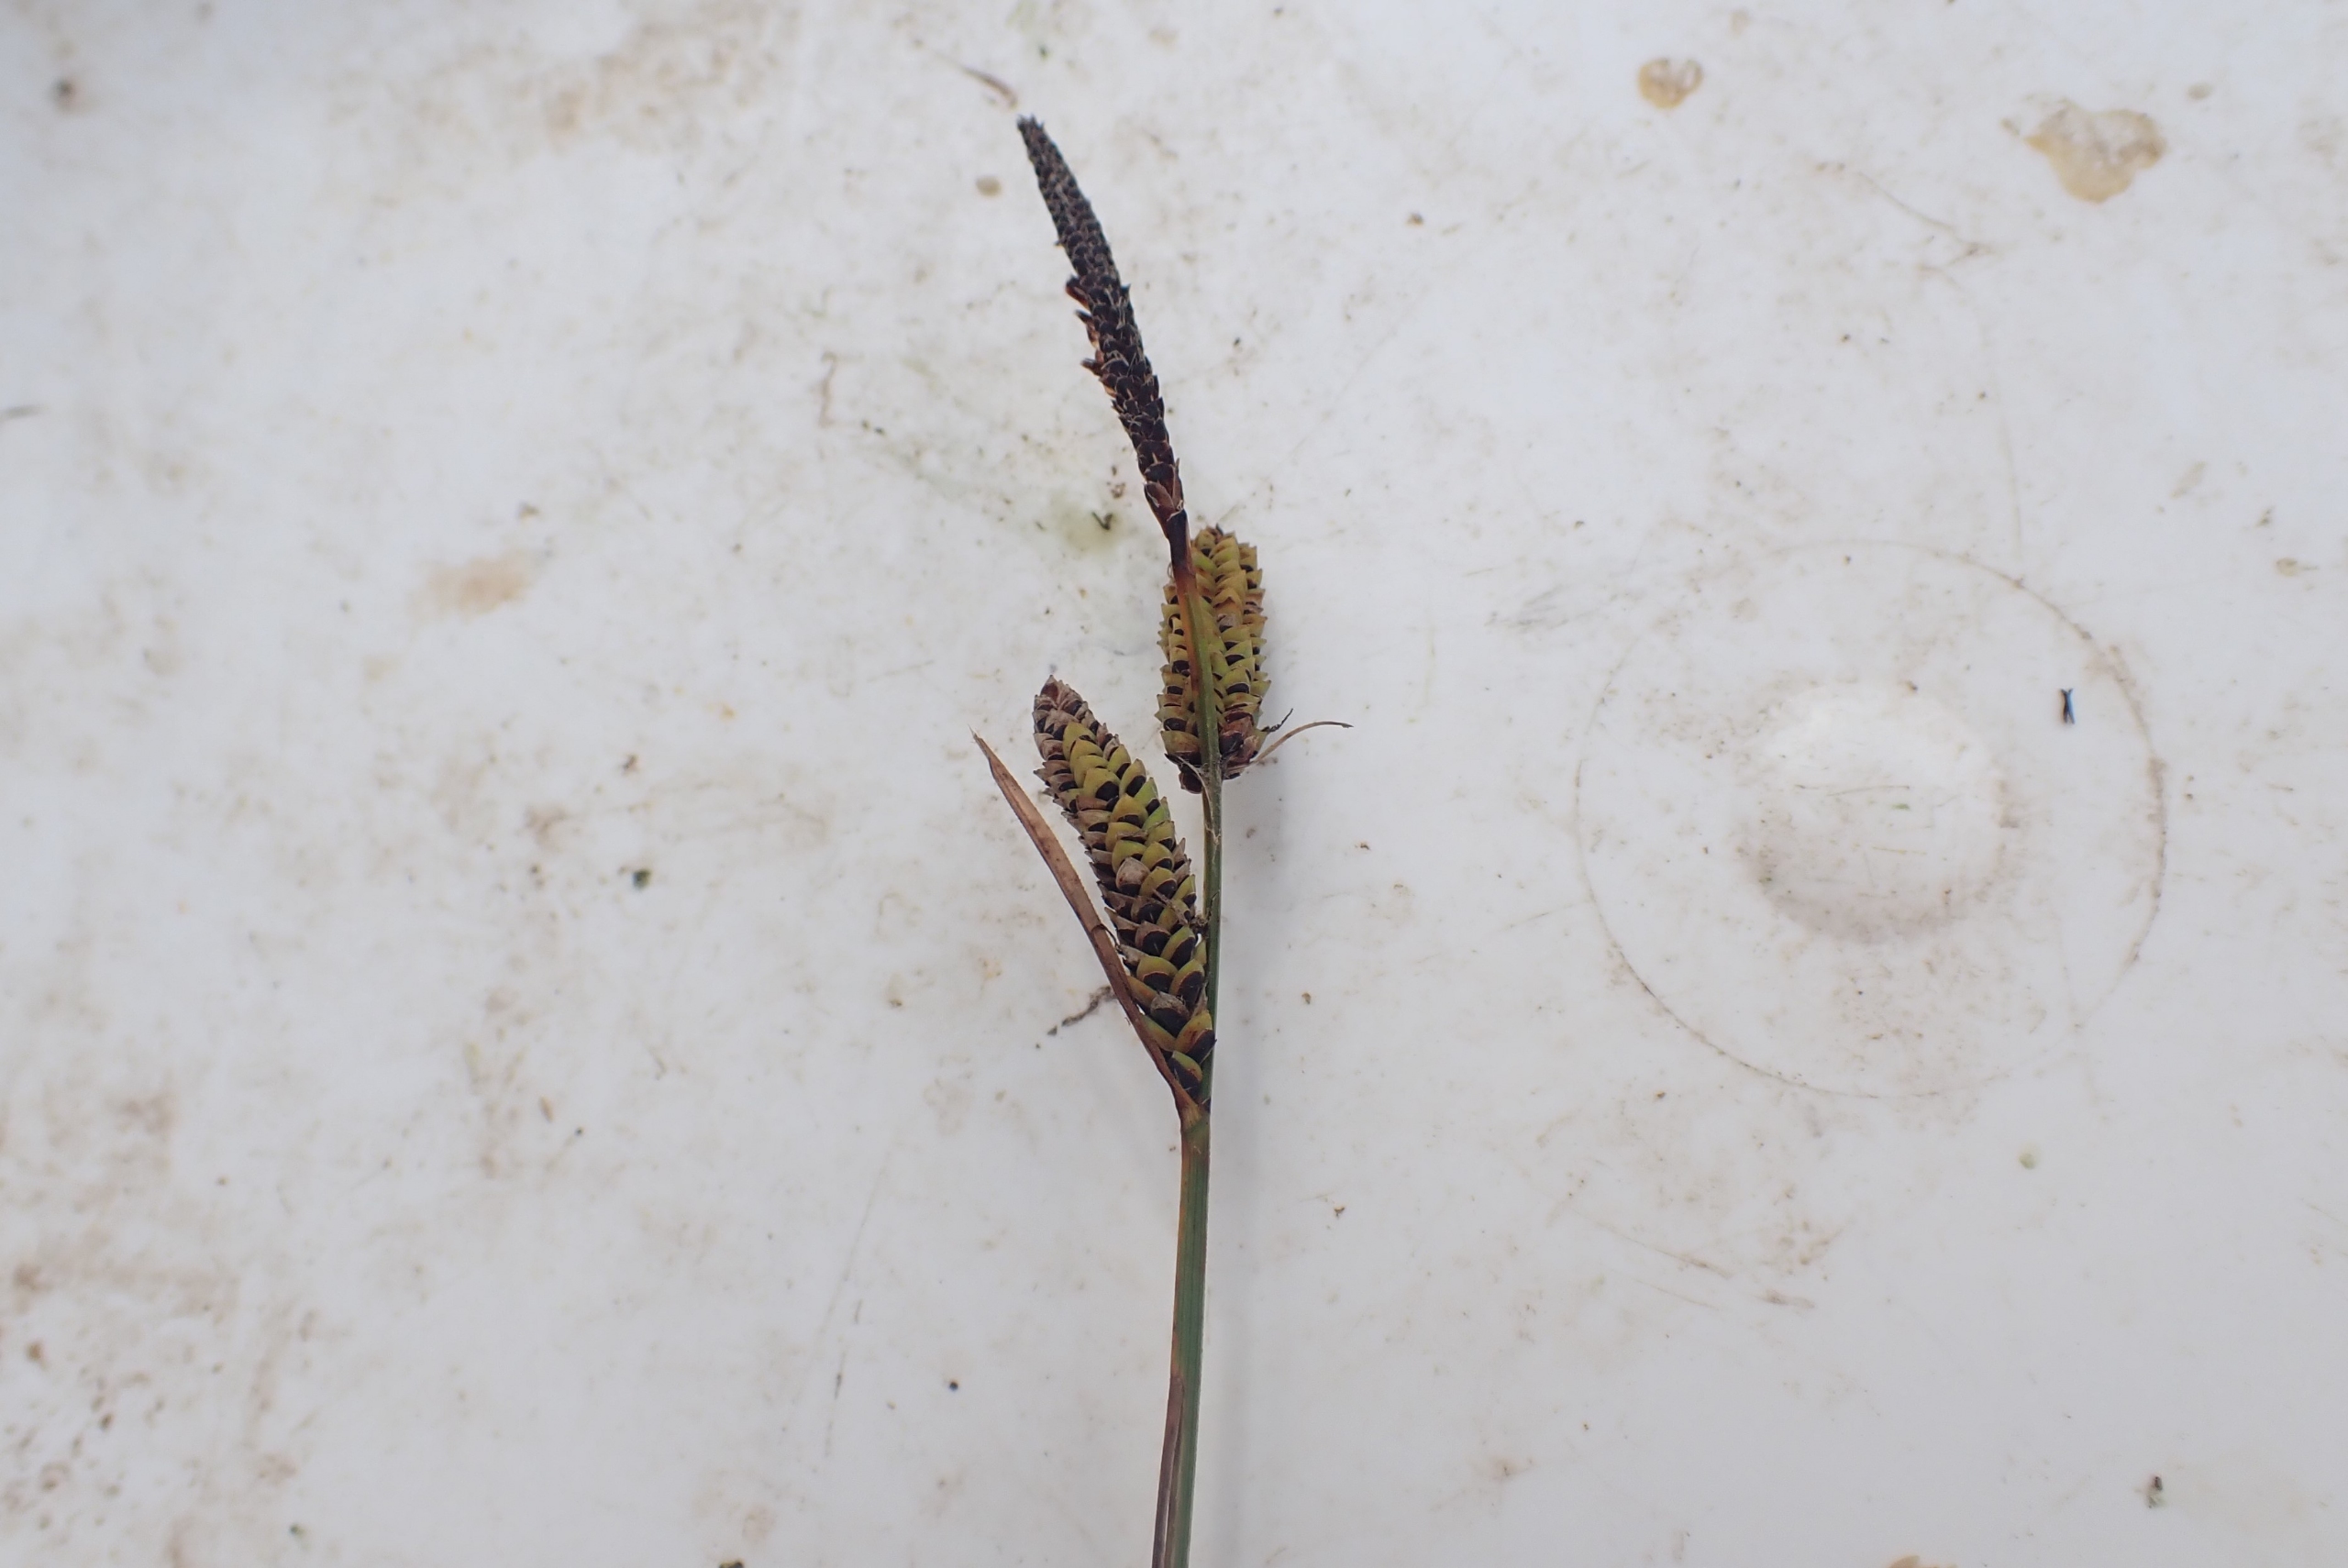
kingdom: Plantae
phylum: Tracheophyta
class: Liliopsida
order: Poales
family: Cyperaceae
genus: Carex
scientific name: Carex nigra
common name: Almindelig star
